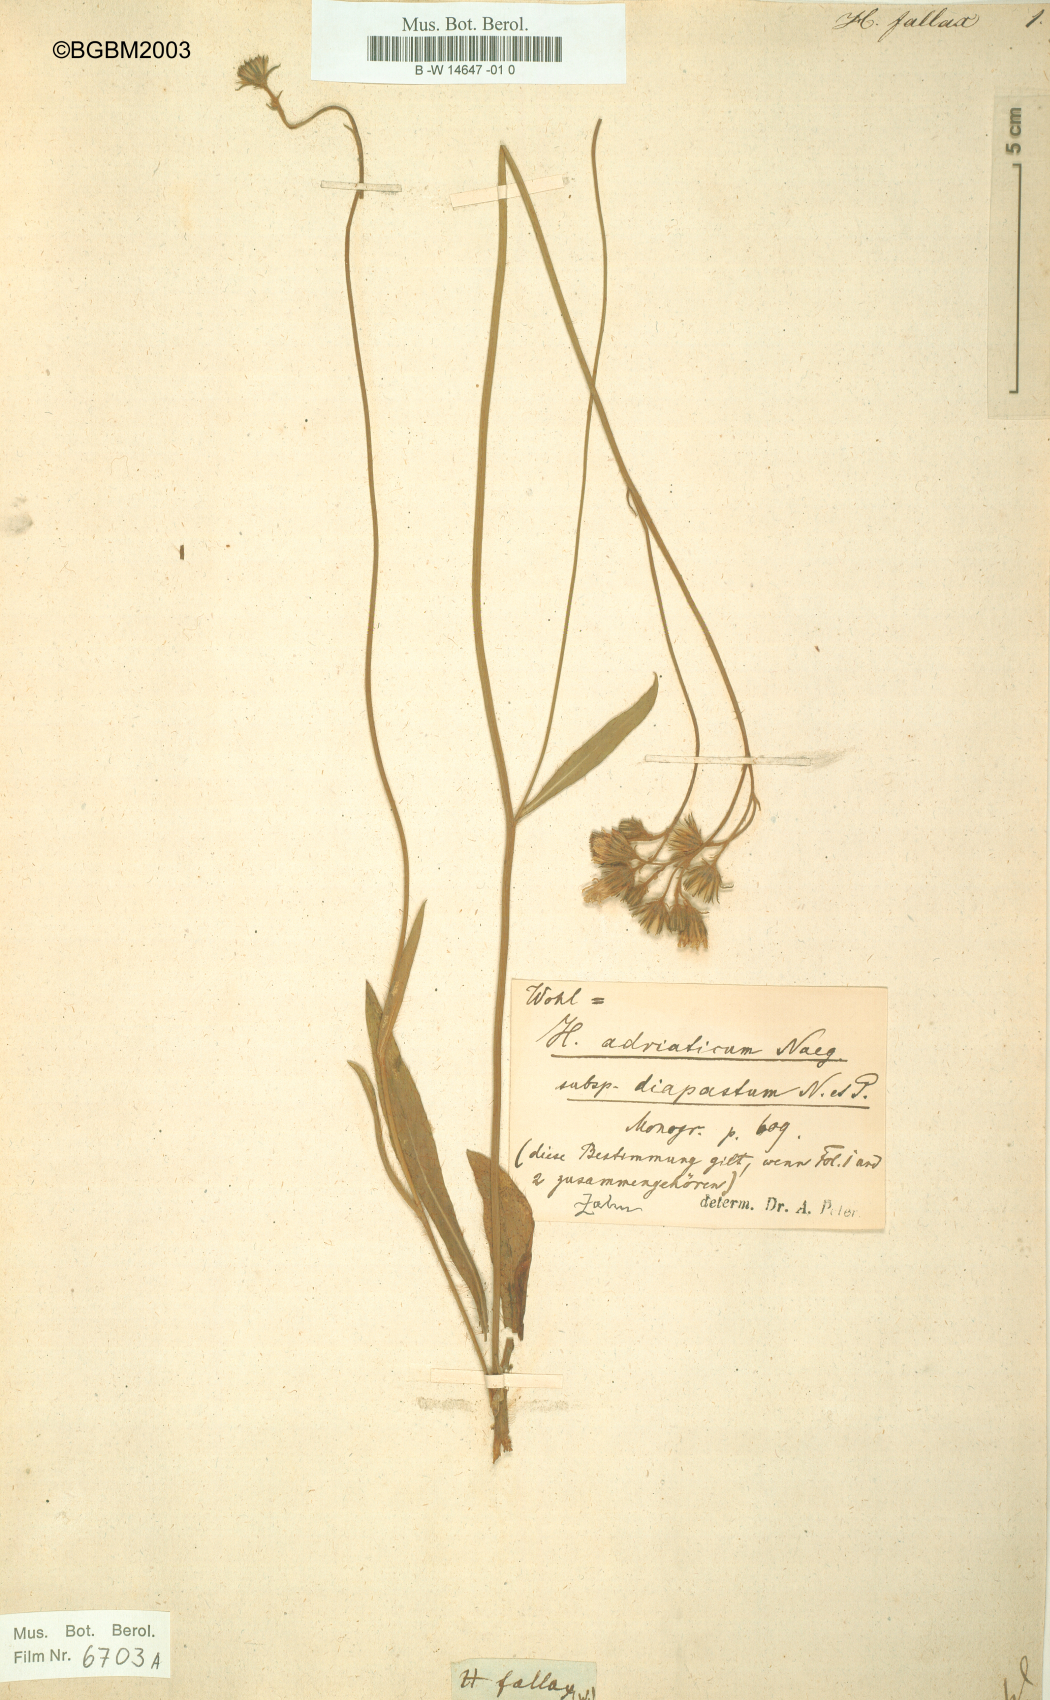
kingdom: Plantae
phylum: Tracheophyta
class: Magnoliopsida
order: Asterales
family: Asteraceae
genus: Hieracium
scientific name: Hieracium fallax
